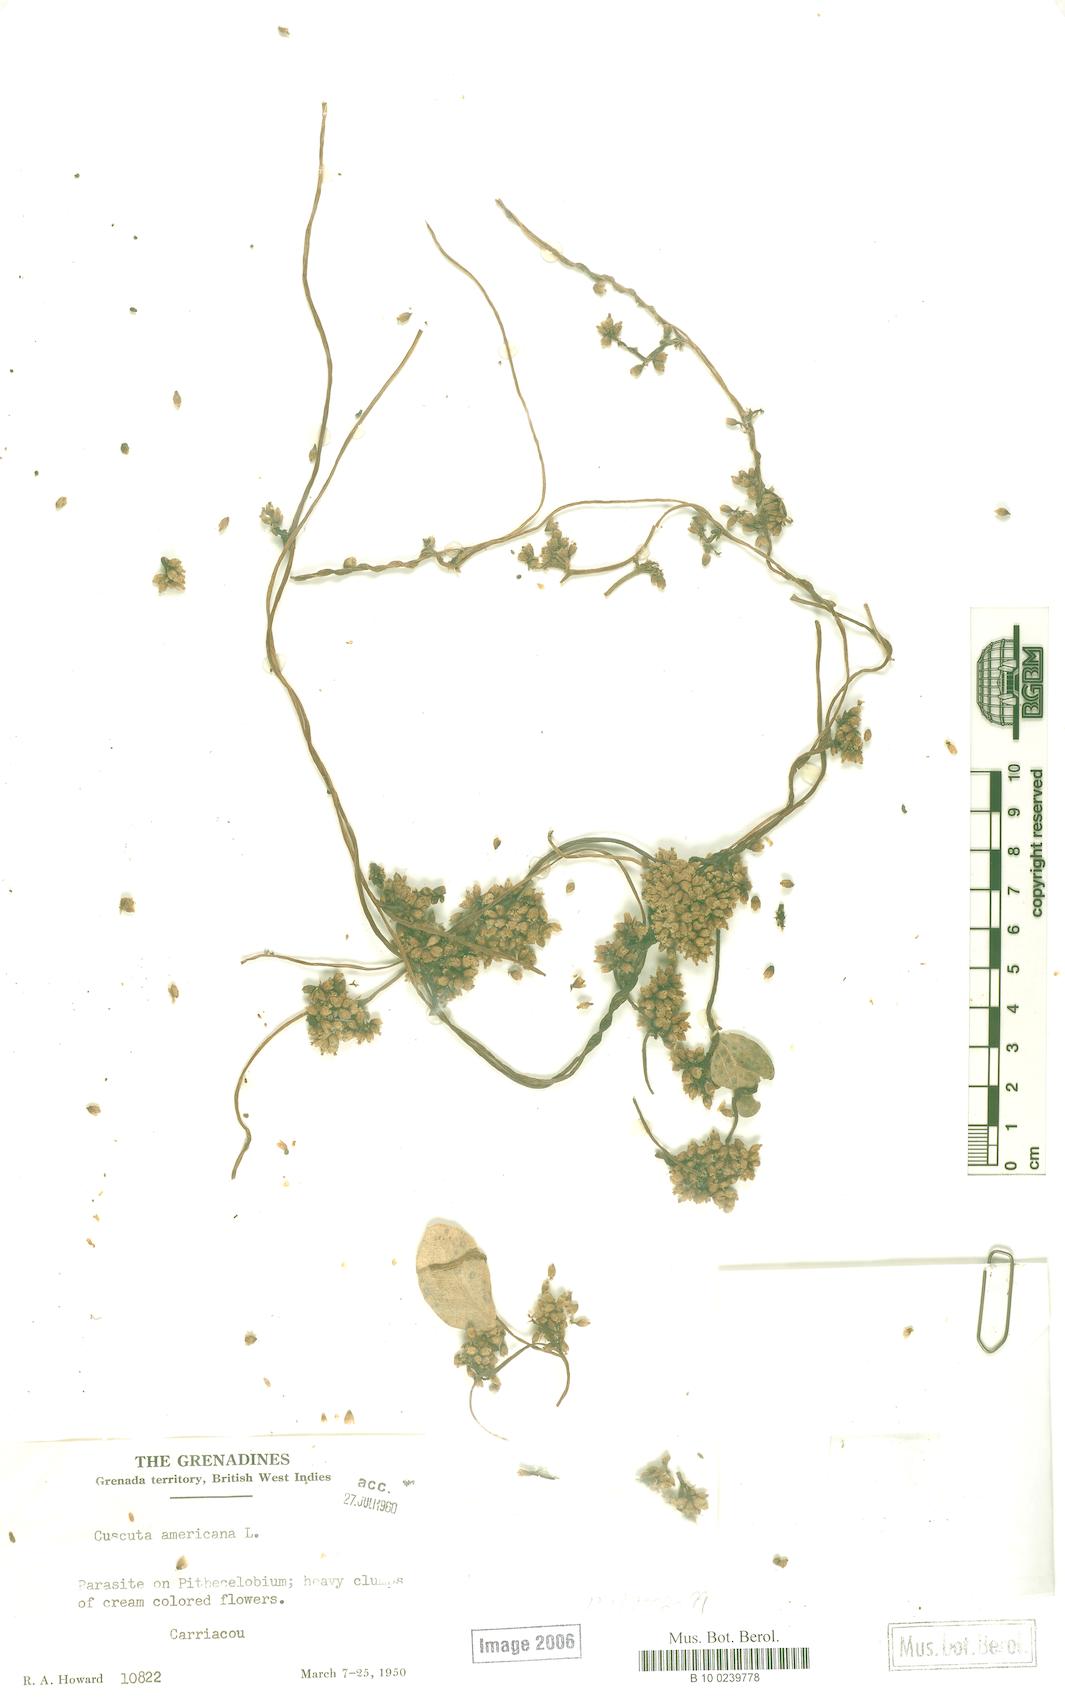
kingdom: Plantae
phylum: Tracheophyta
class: Magnoliopsida
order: Solanales
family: Convolvulaceae
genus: Cuscuta
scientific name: Cuscuta americana
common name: American dodder
